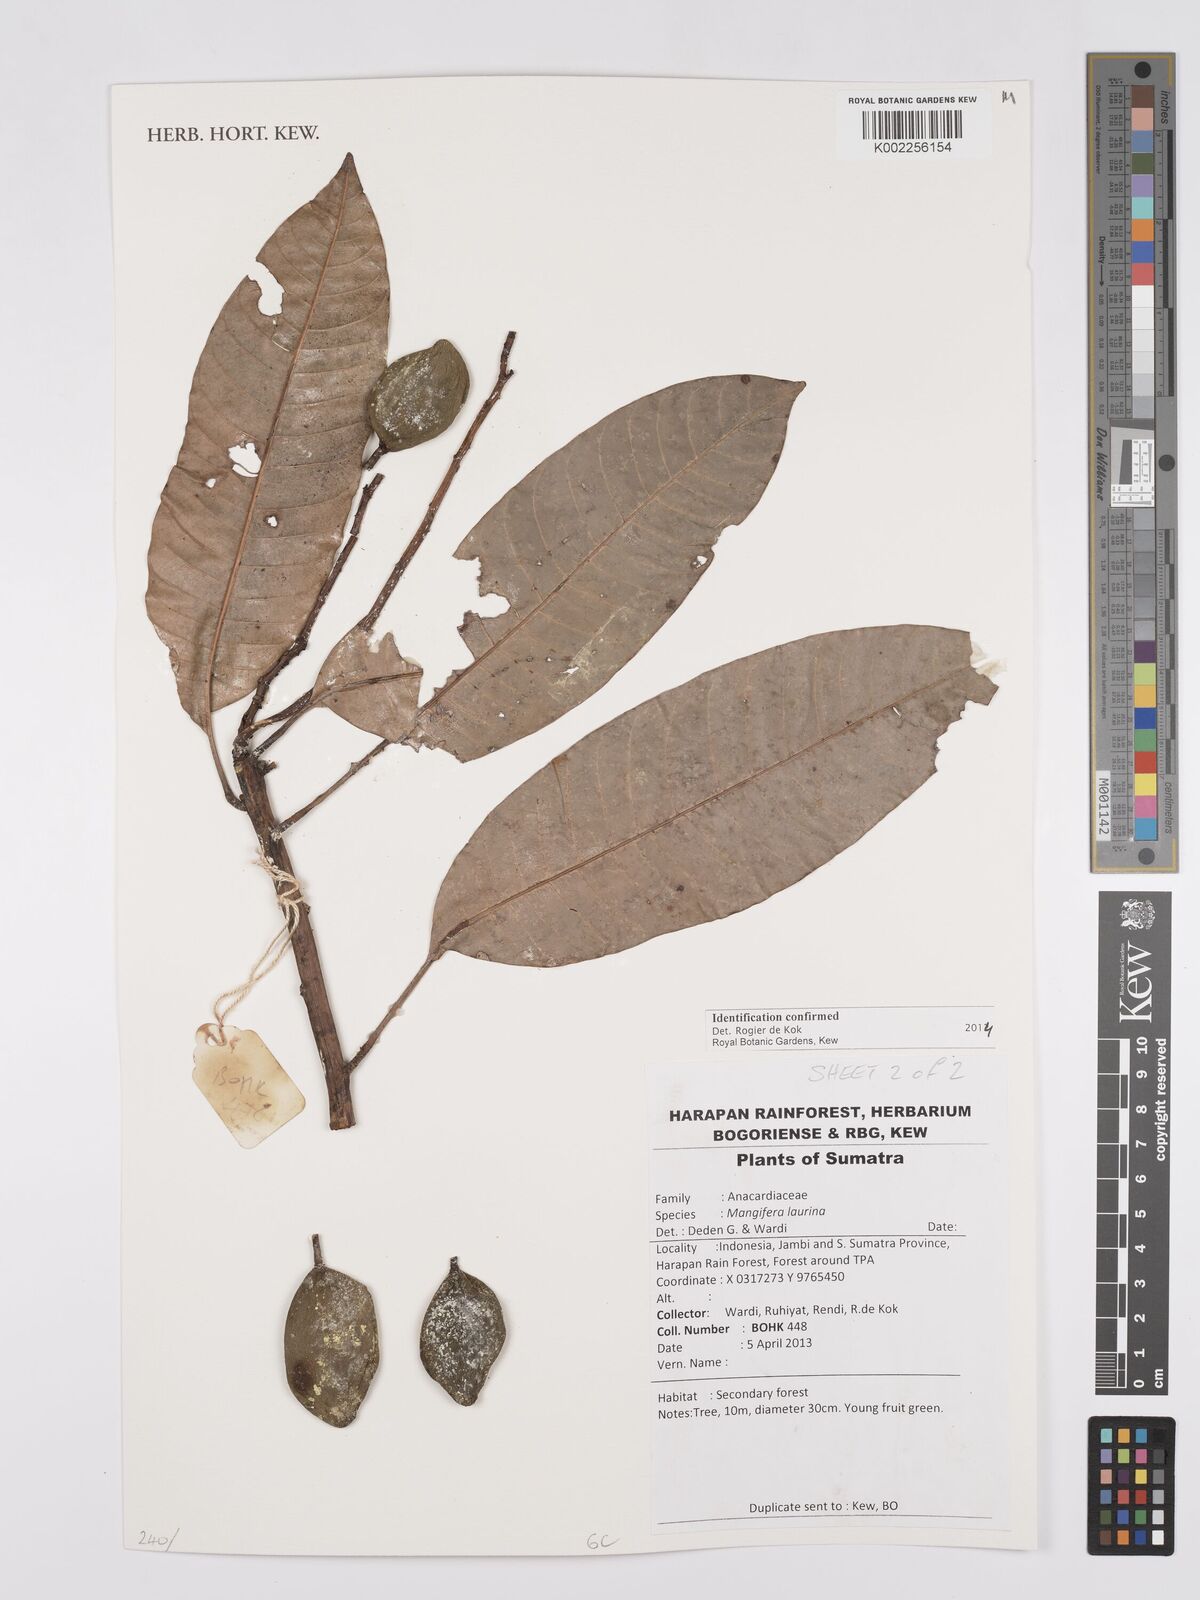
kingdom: Plantae
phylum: Tracheophyta
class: Magnoliopsida
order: Sapindales
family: Anacardiaceae
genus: Mangifera
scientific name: Mangifera laurina
